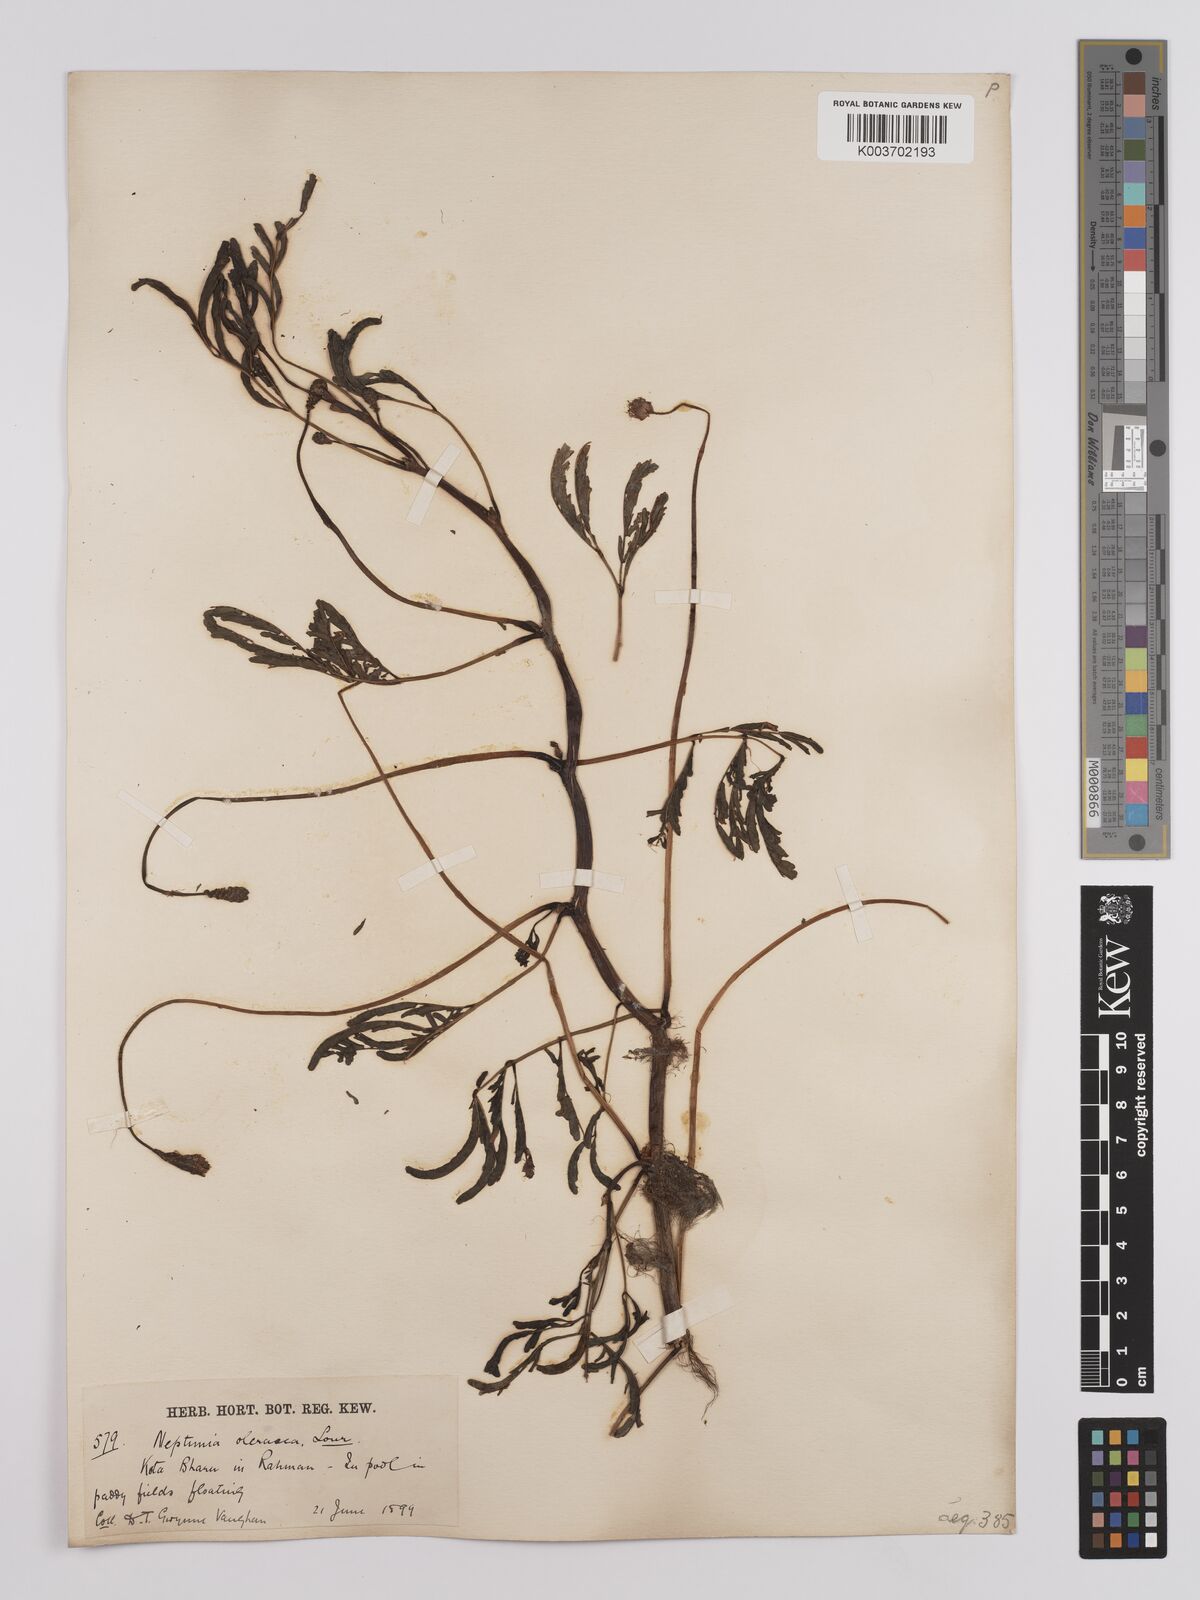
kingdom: Plantae
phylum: Tracheophyta
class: Magnoliopsida
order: Fabales
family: Fabaceae
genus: Neptunia
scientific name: Neptunia prostrata
